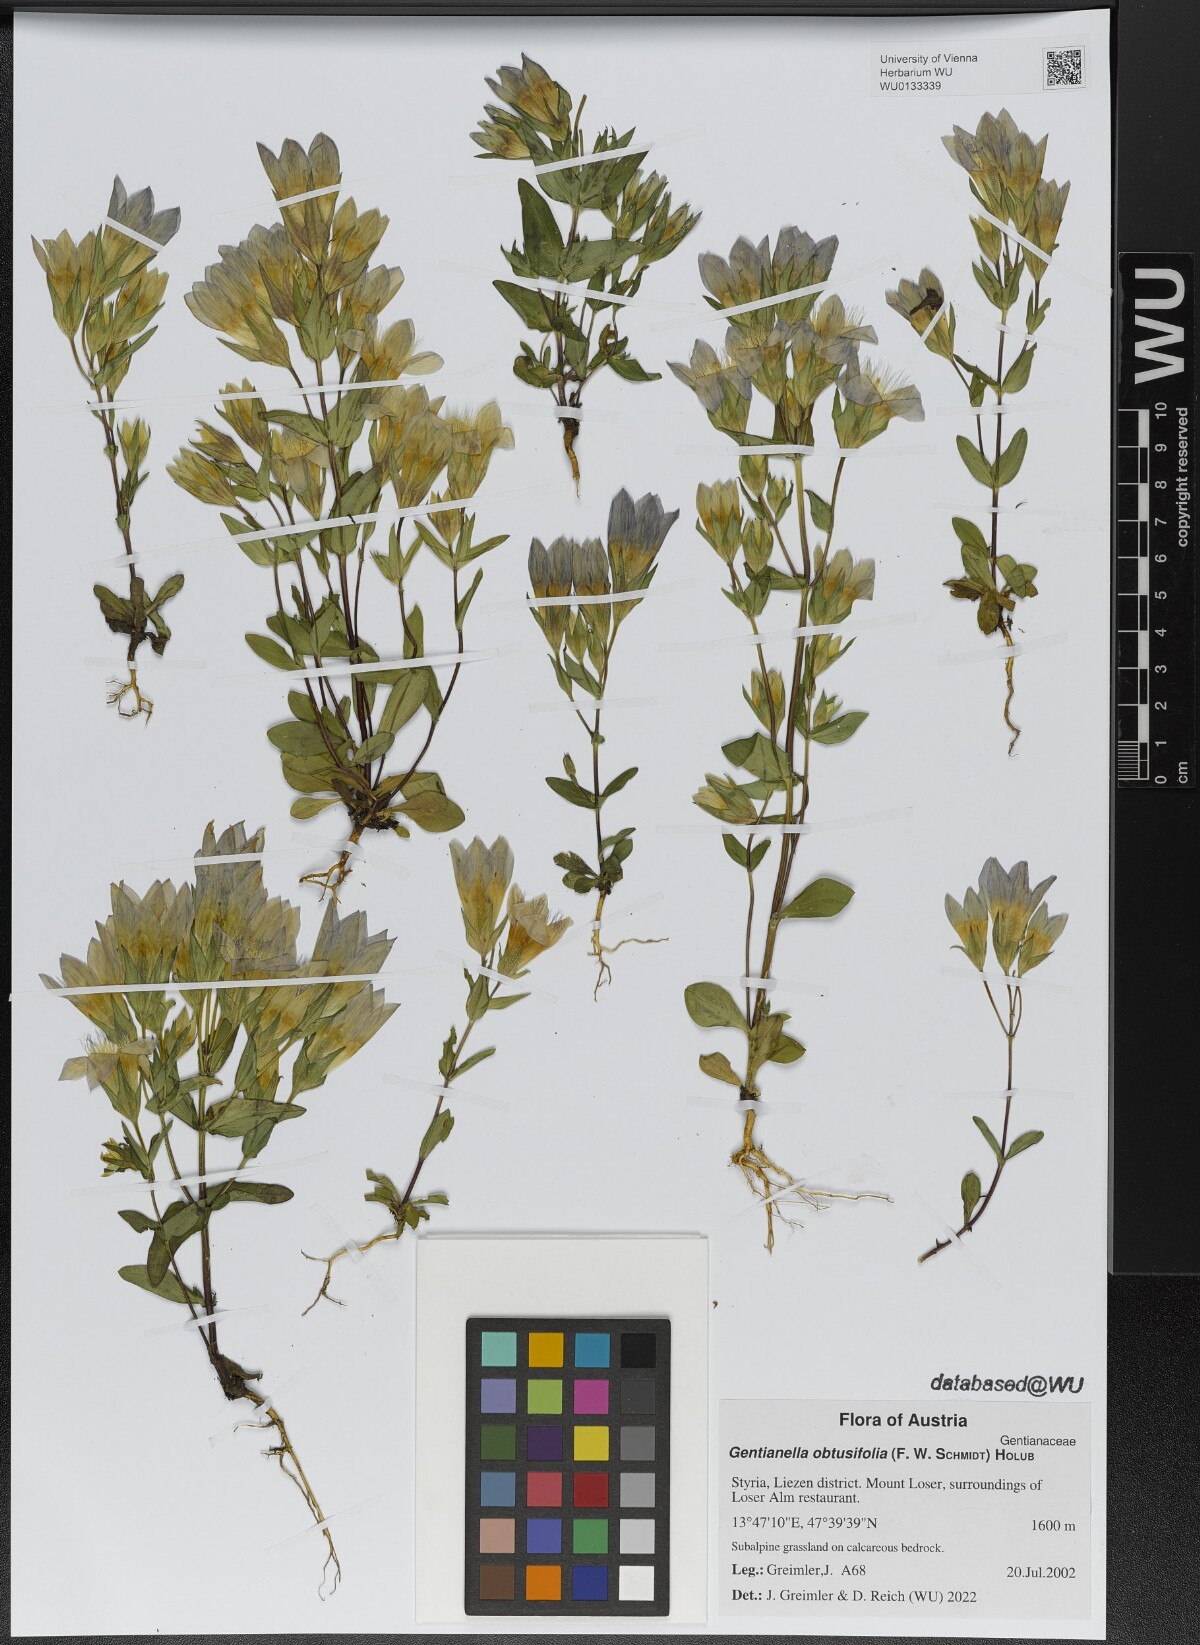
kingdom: Plantae
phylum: Tracheophyta
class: Magnoliopsida
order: Gentianales
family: Gentianaceae
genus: Gentianella
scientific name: Gentianella obtusifolia
